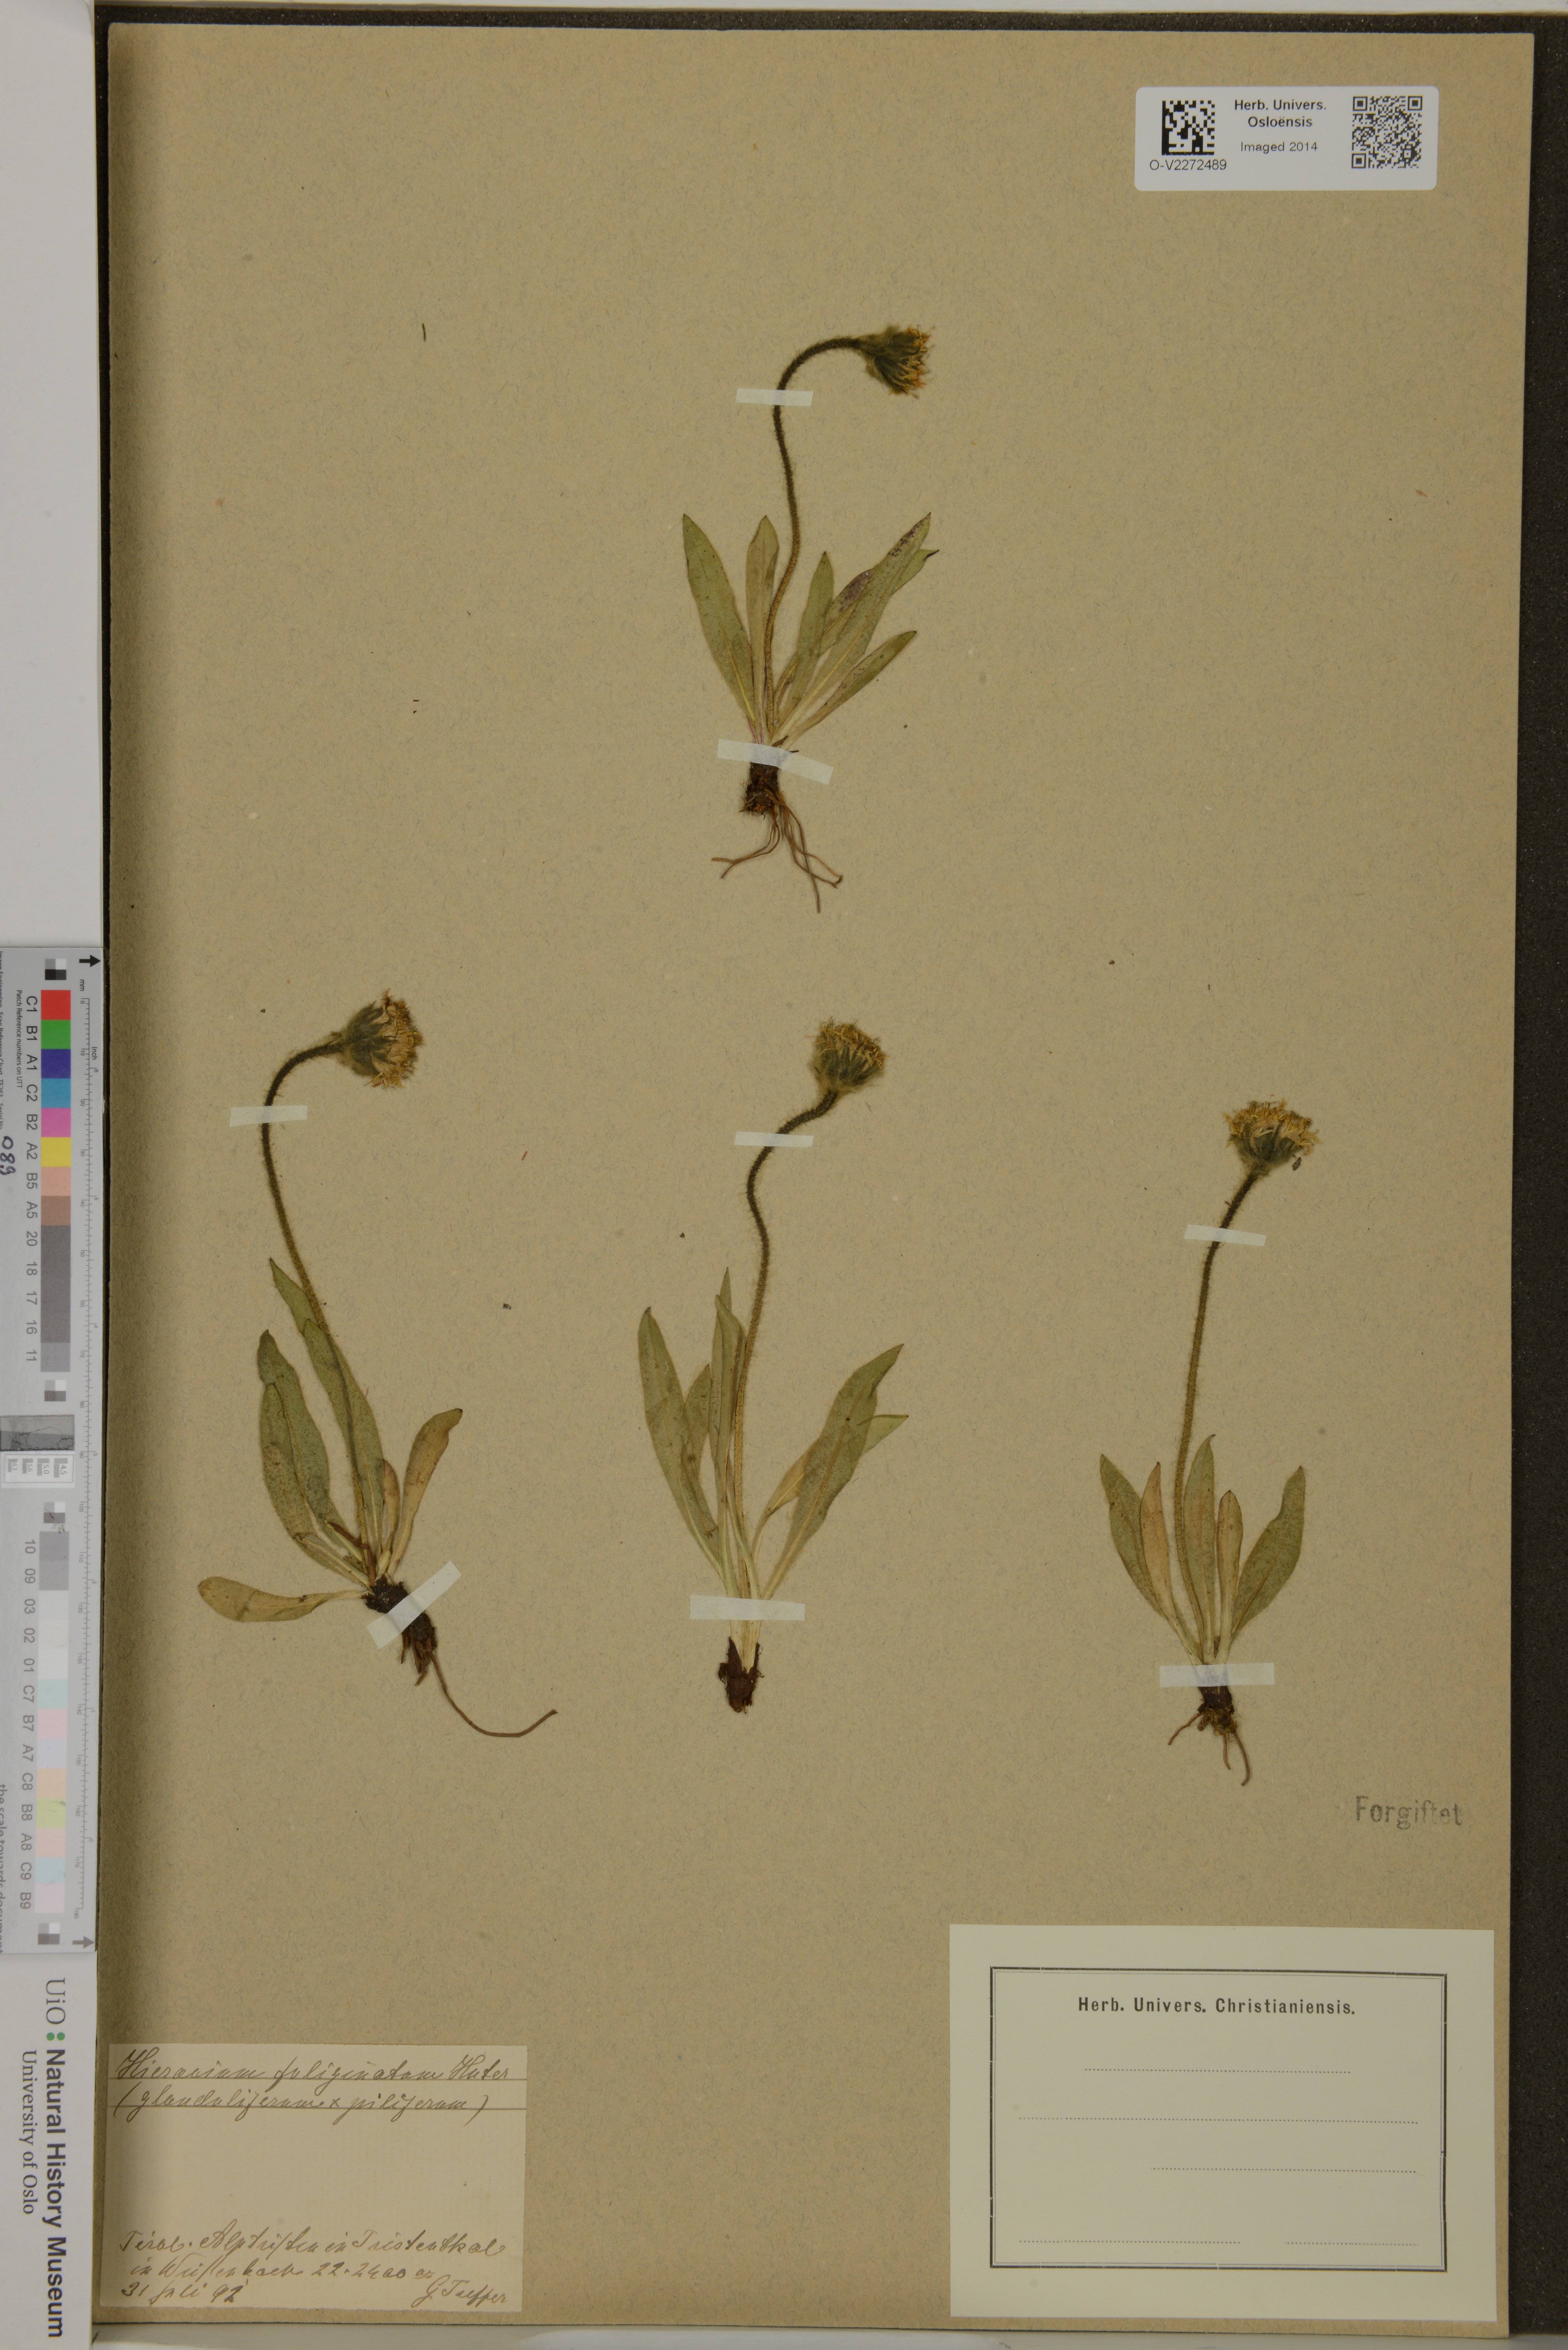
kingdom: Plantae
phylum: Tracheophyta
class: Magnoliopsida
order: Asterales
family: Asteraceae
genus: Hieracium
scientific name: Hieracium piliferum
